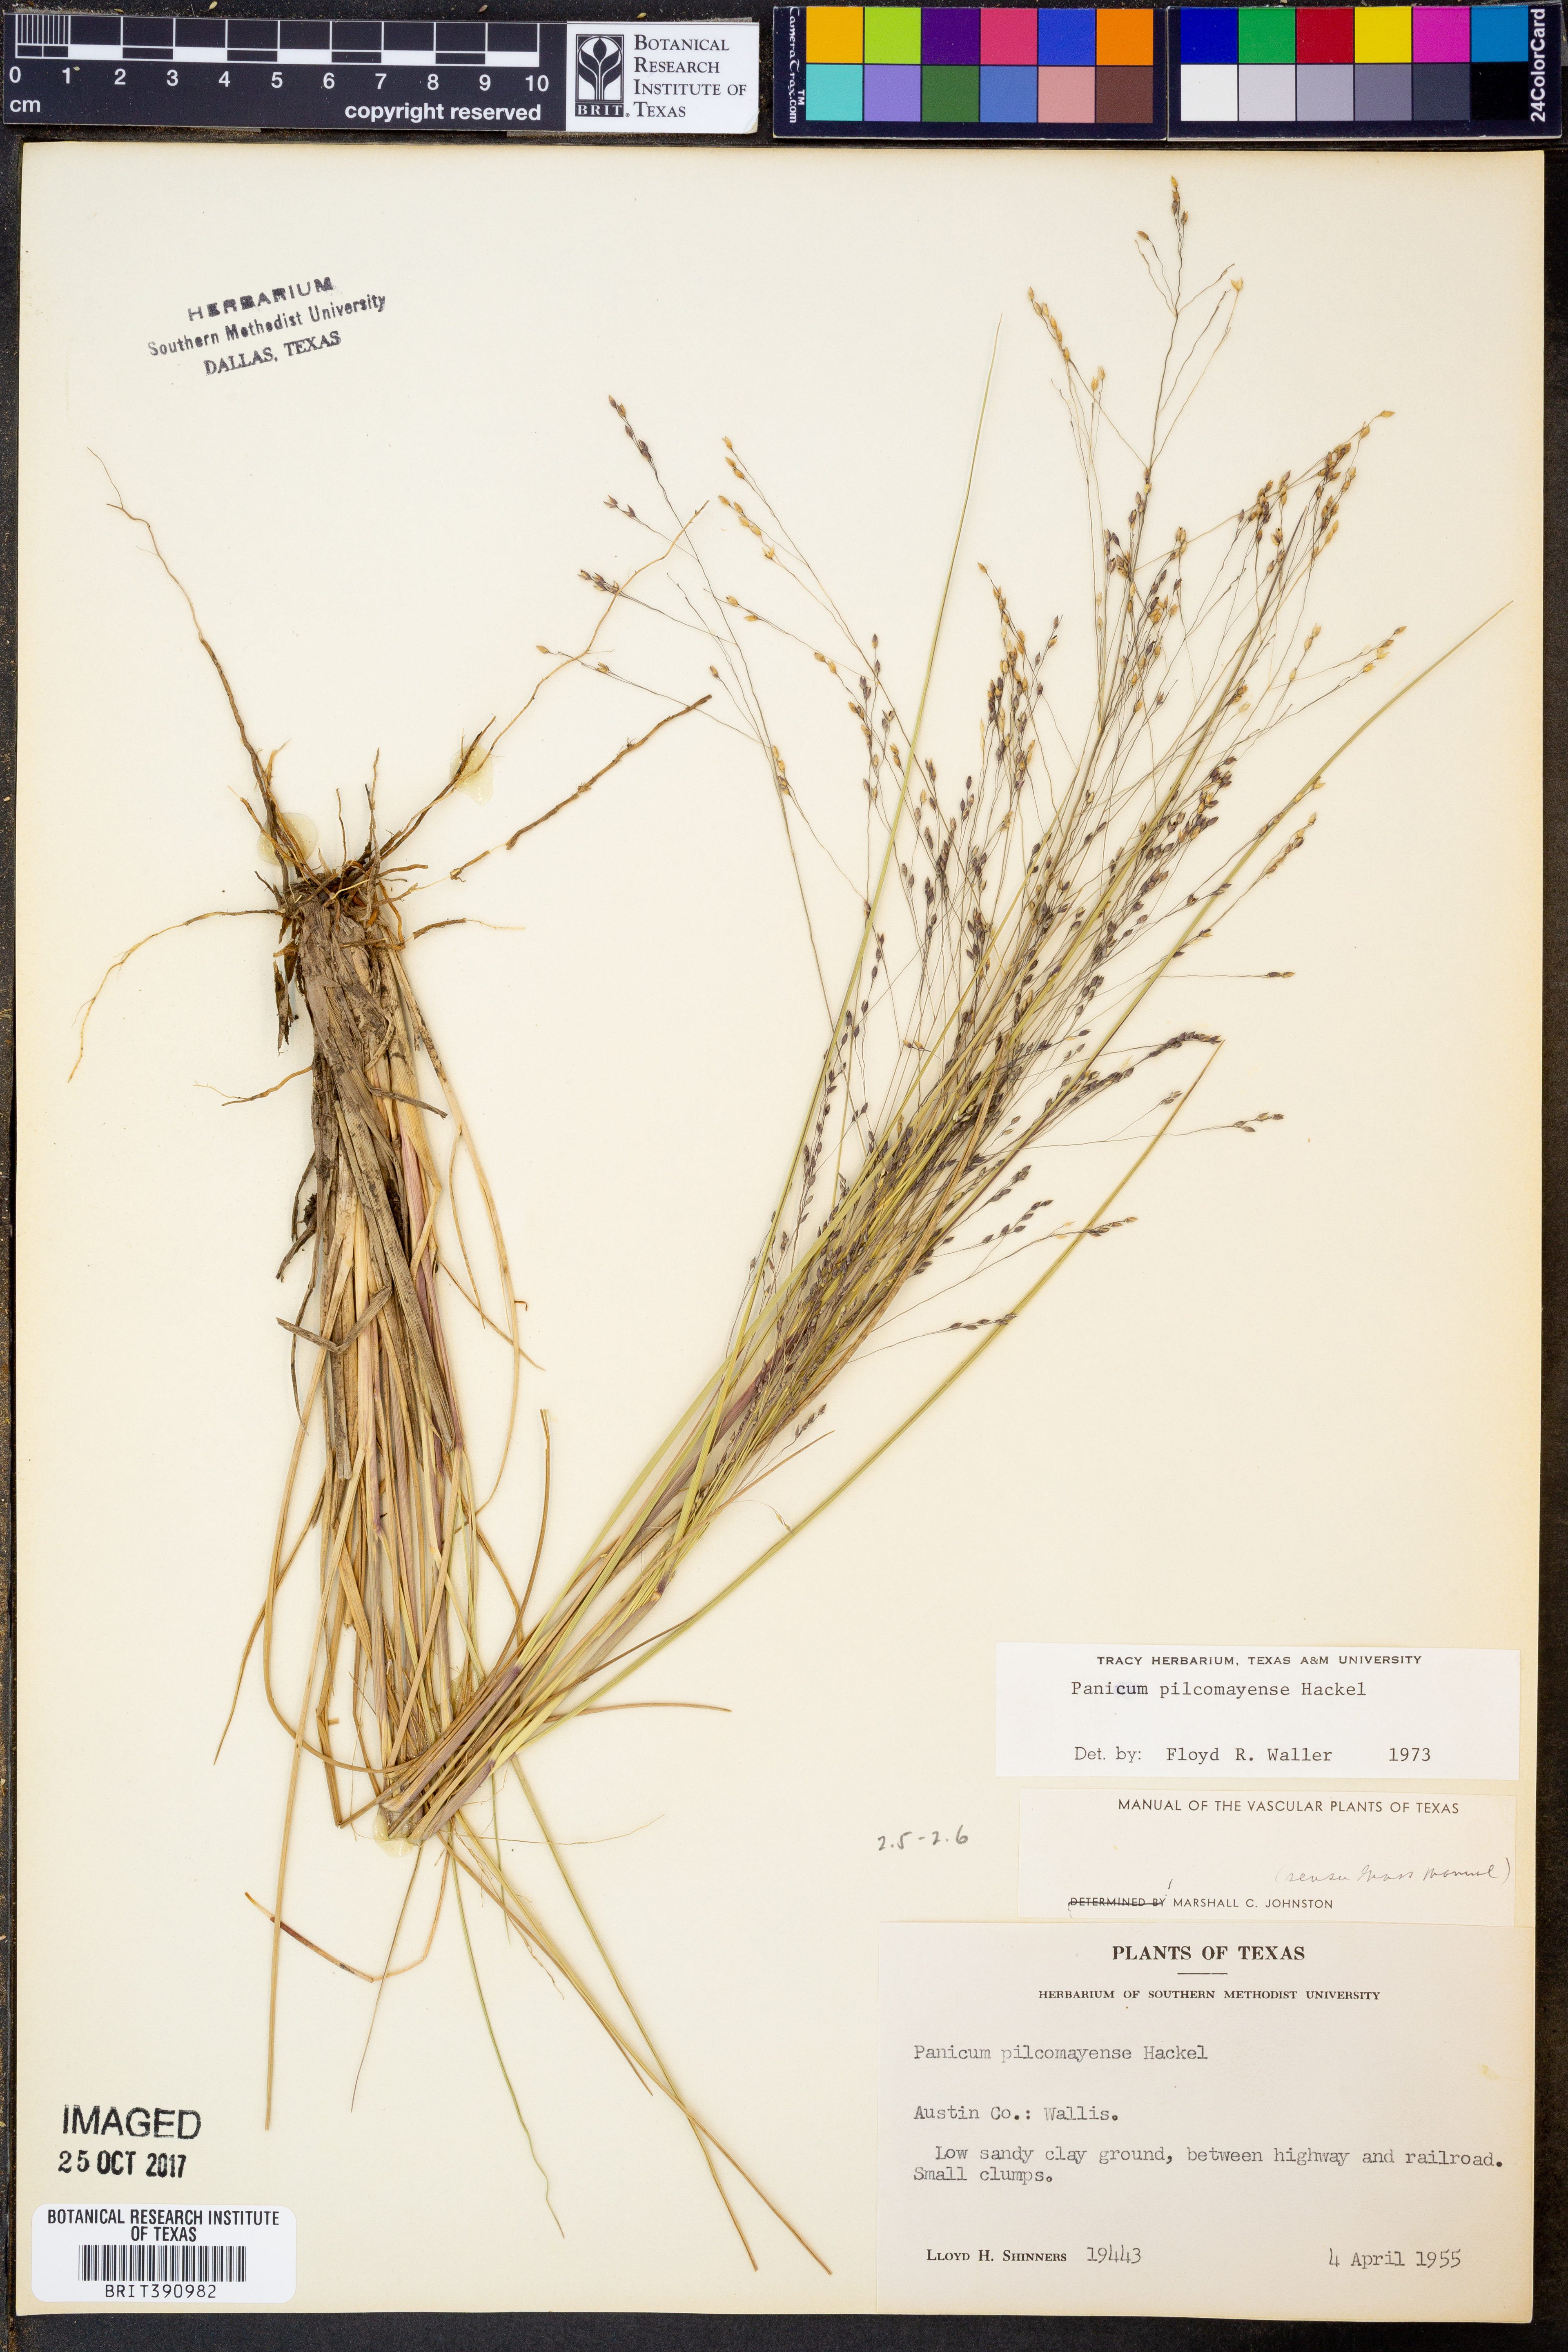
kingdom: Plantae
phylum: Tracheophyta
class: Liliopsida
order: Poales
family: Poaceae
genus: Panicum
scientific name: Panicum bergii
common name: Berg's panicgrass
